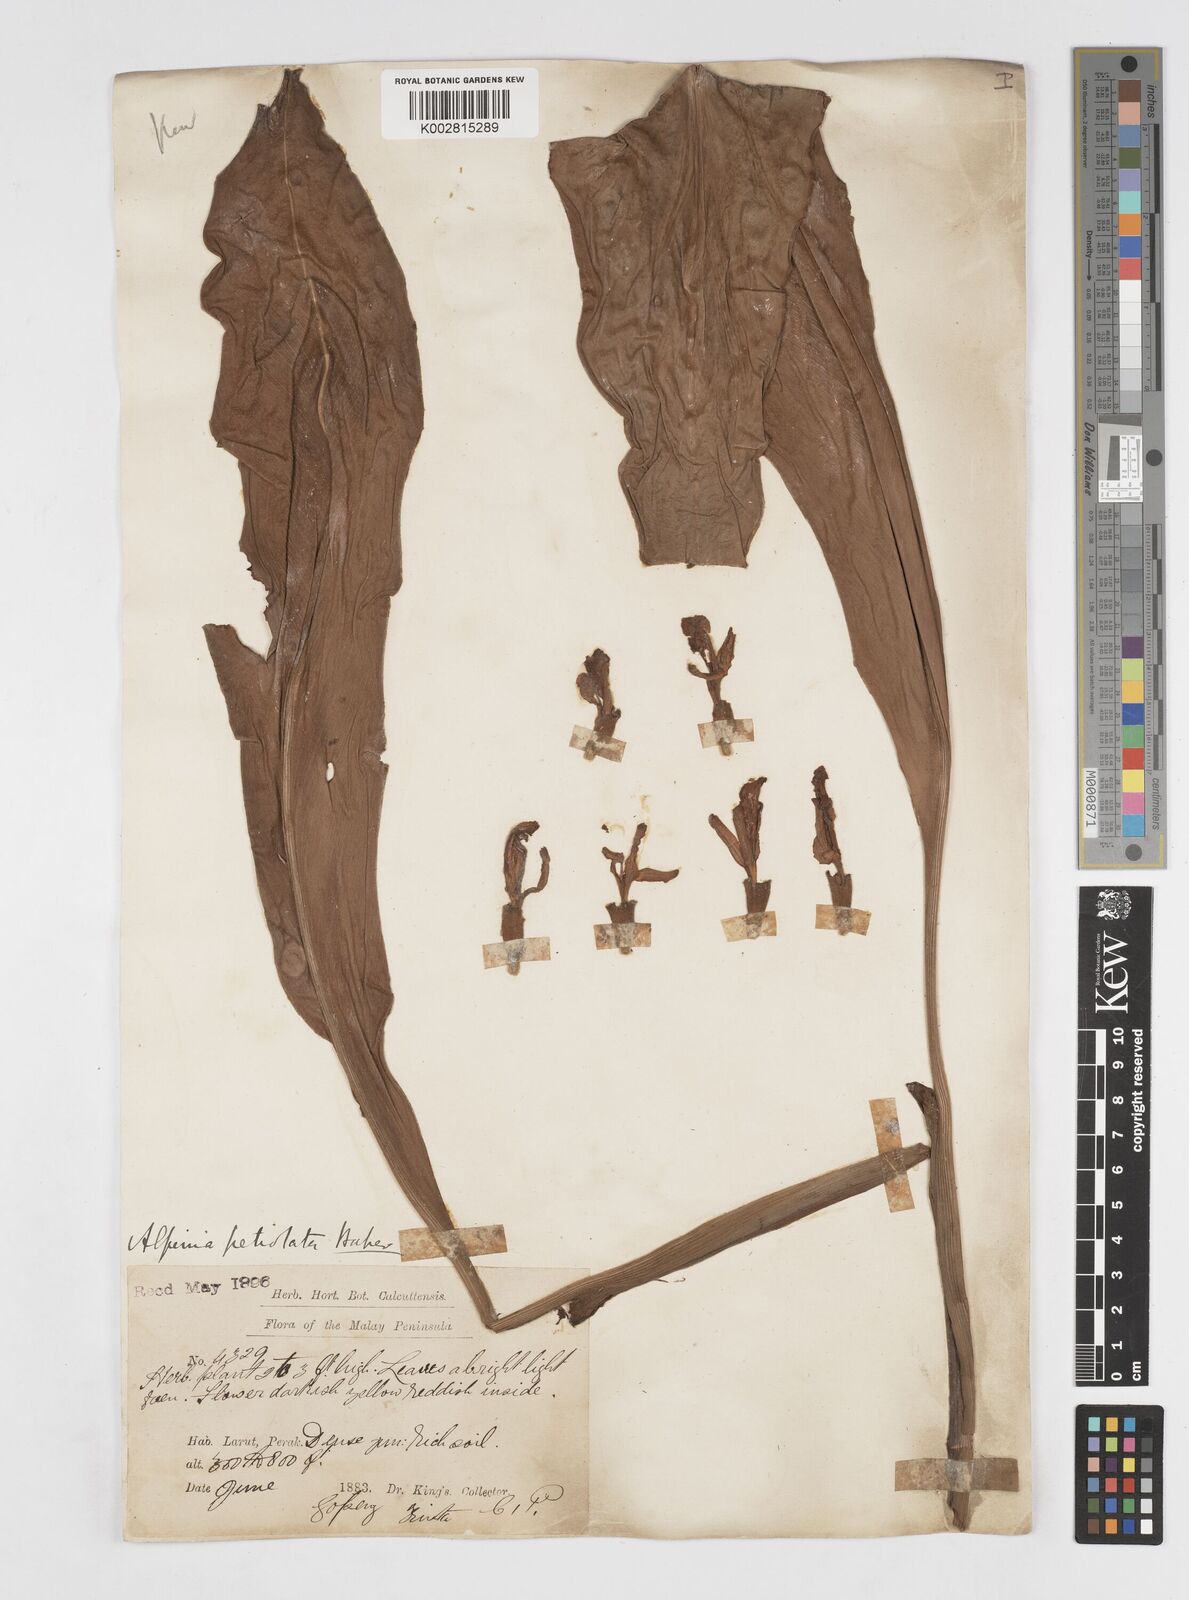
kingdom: Plantae
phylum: Tracheophyta
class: Liliopsida
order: Zingiberales
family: Zingiberaceae
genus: Alpinia
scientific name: Alpinia petiolata
